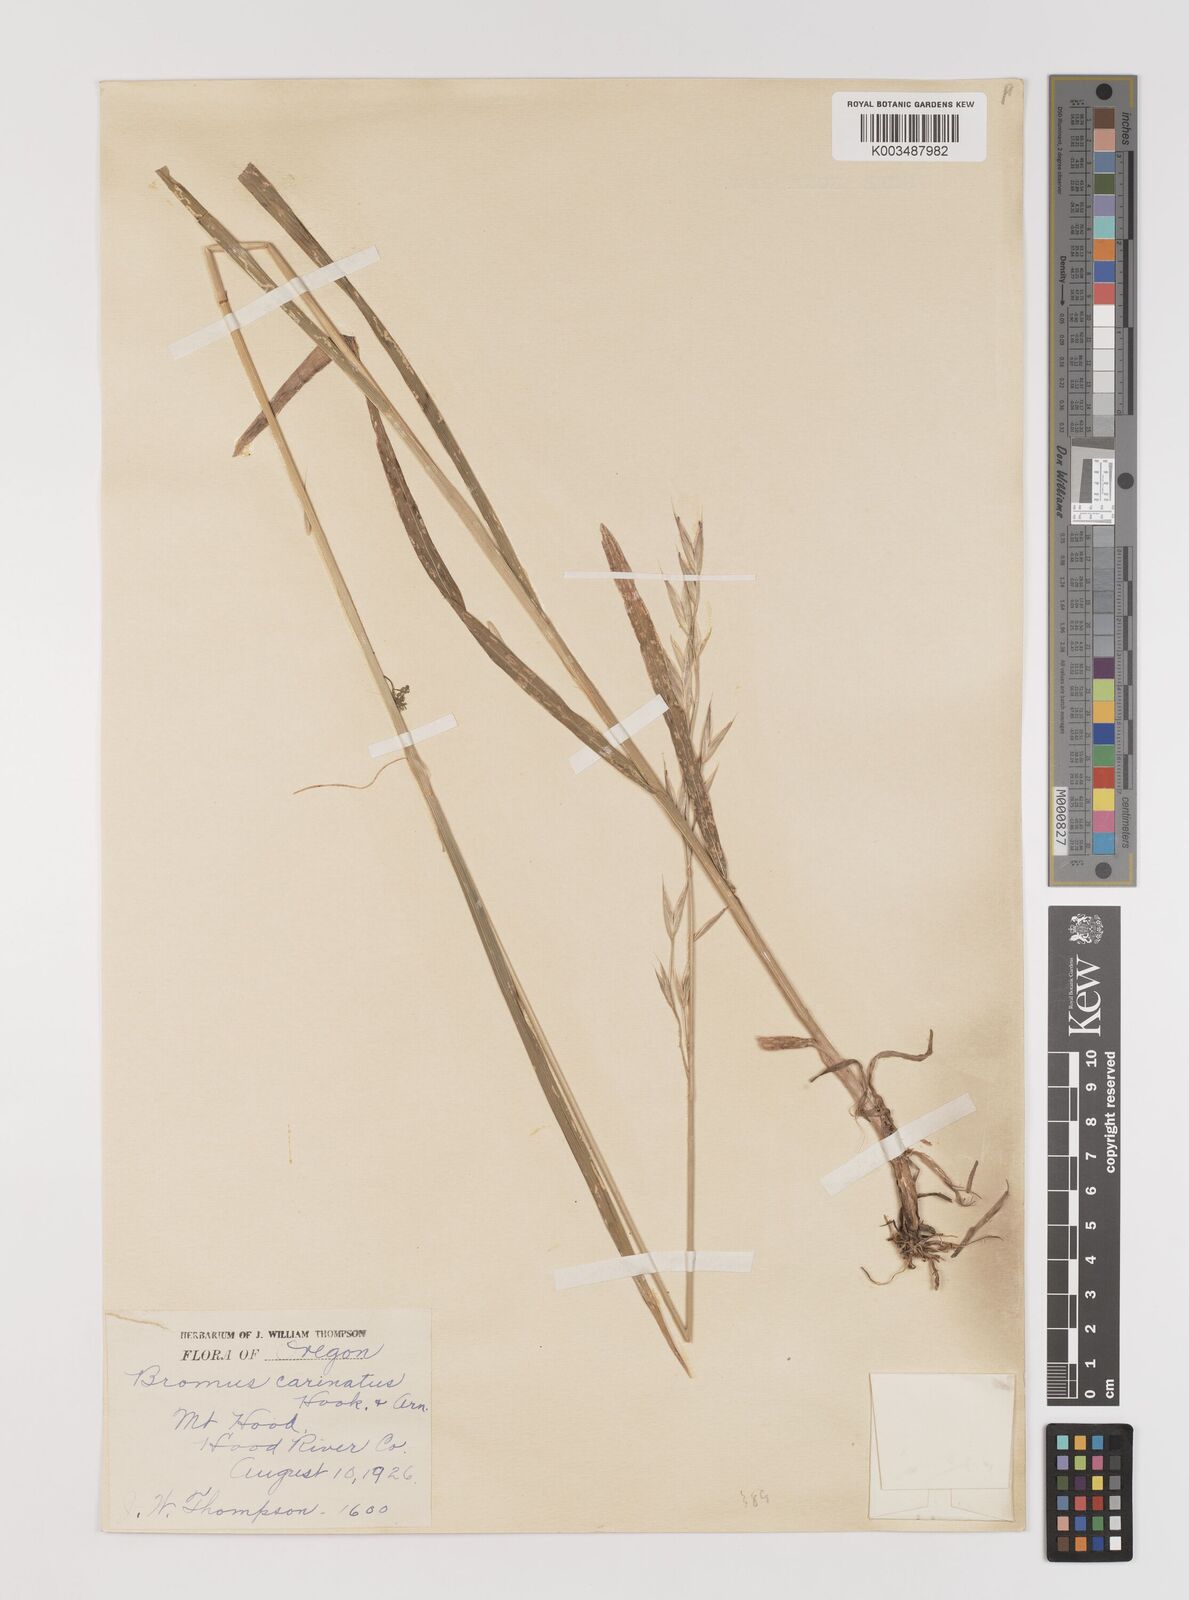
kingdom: Plantae
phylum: Tracheophyta
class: Liliopsida
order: Poales
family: Poaceae
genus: Bromus
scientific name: Bromus marginatus
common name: Western brome
